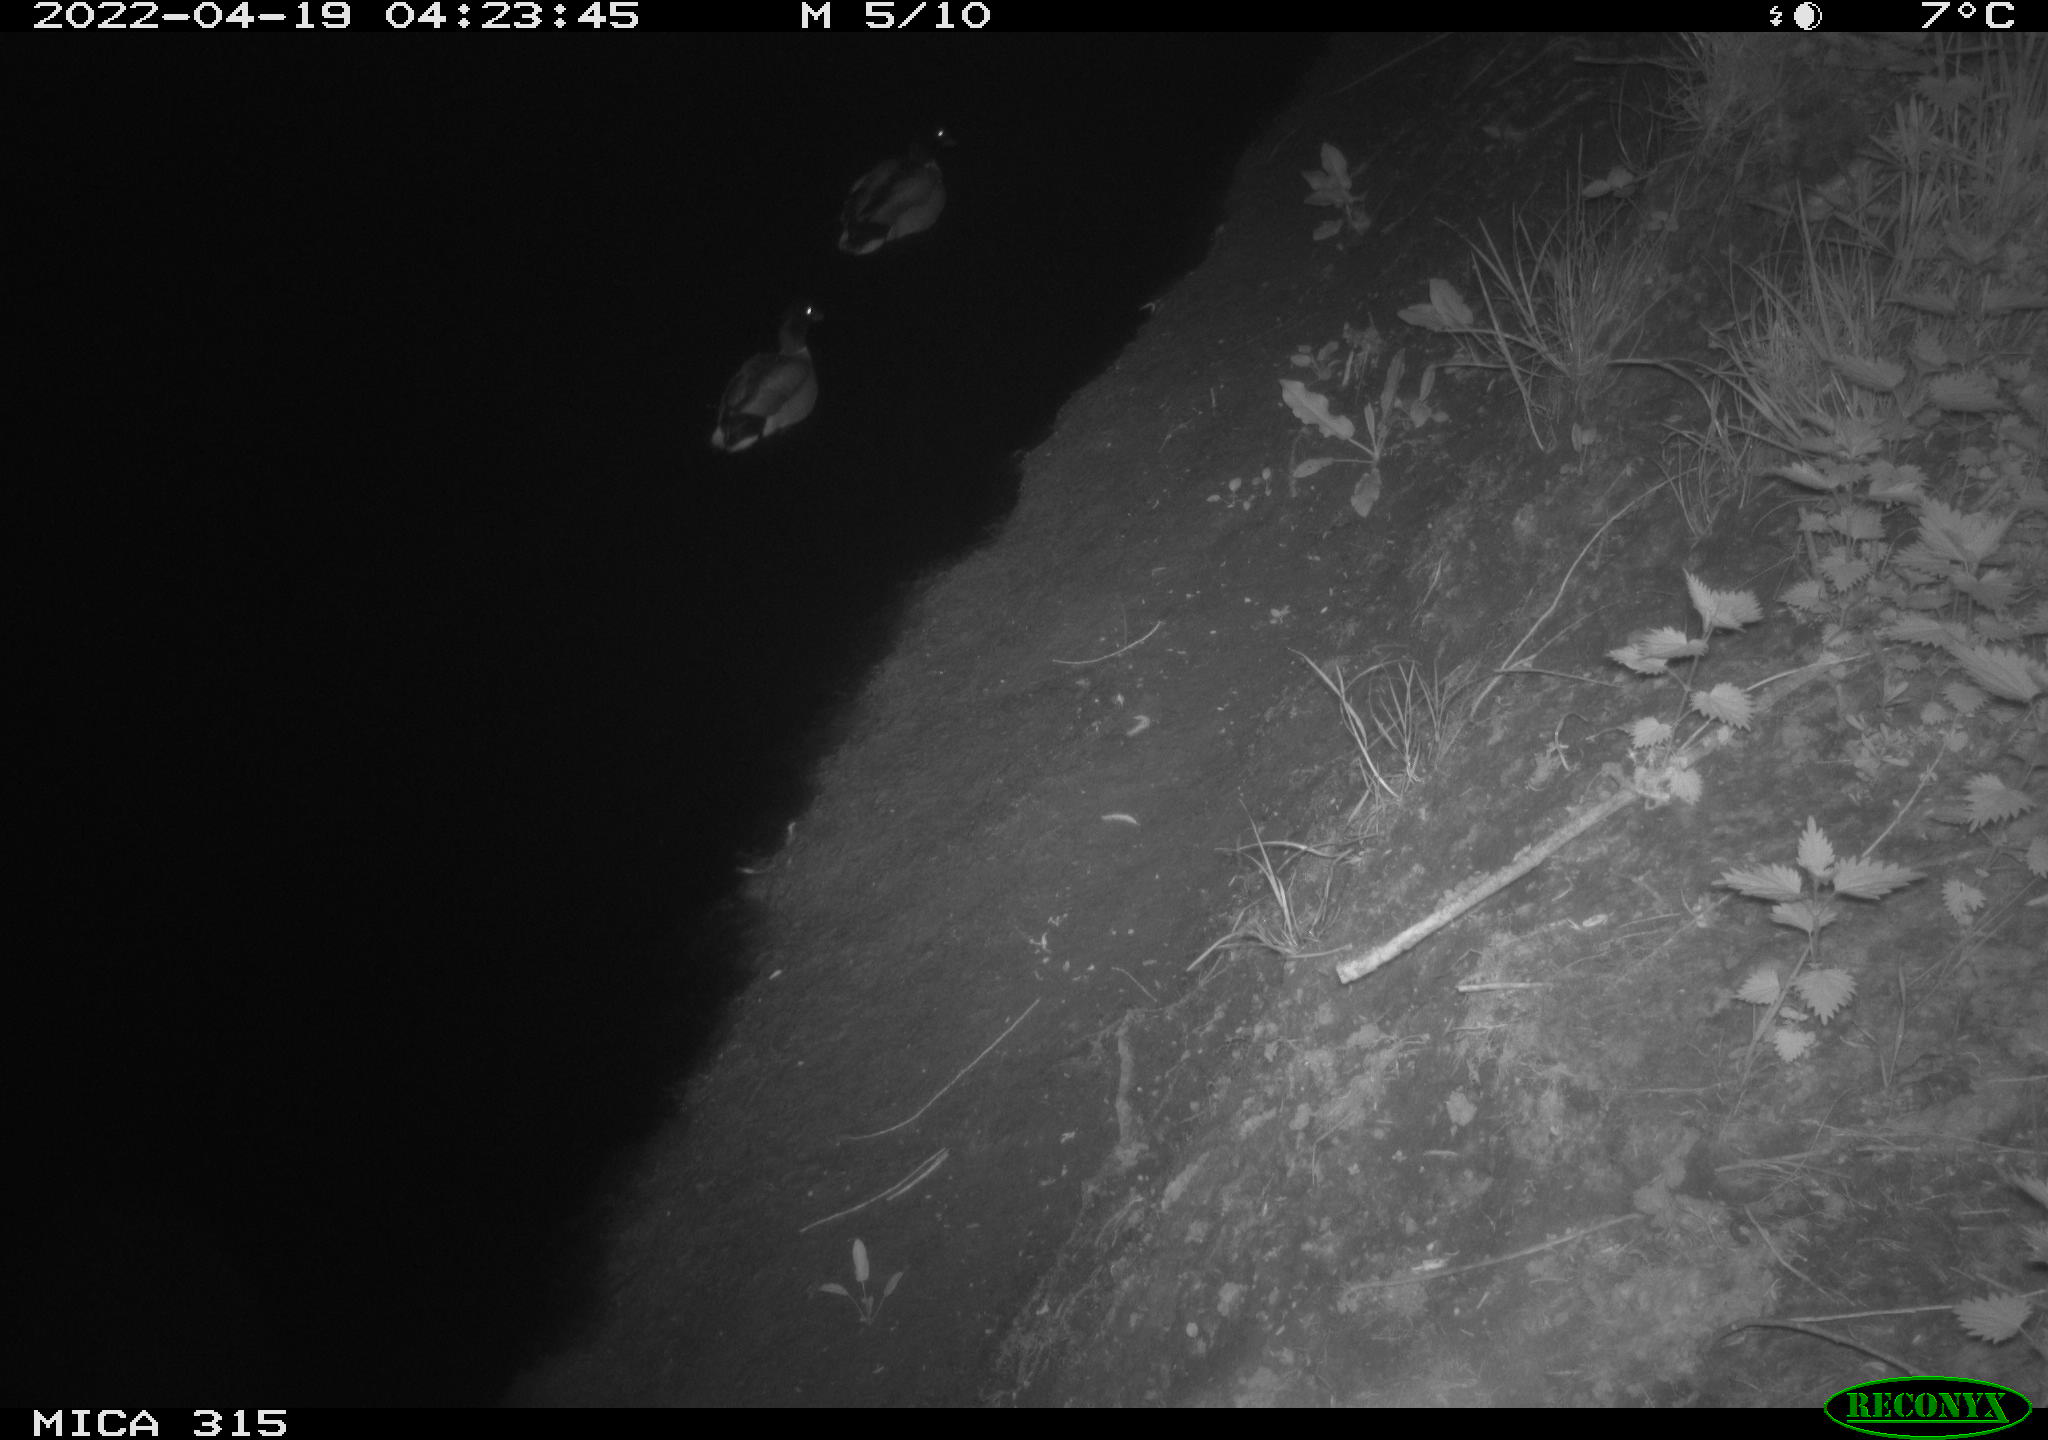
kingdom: Animalia
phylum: Chordata
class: Aves
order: Anseriformes
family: Anatidae
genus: Anas
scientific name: Anas platyrhynchos
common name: Mallard
